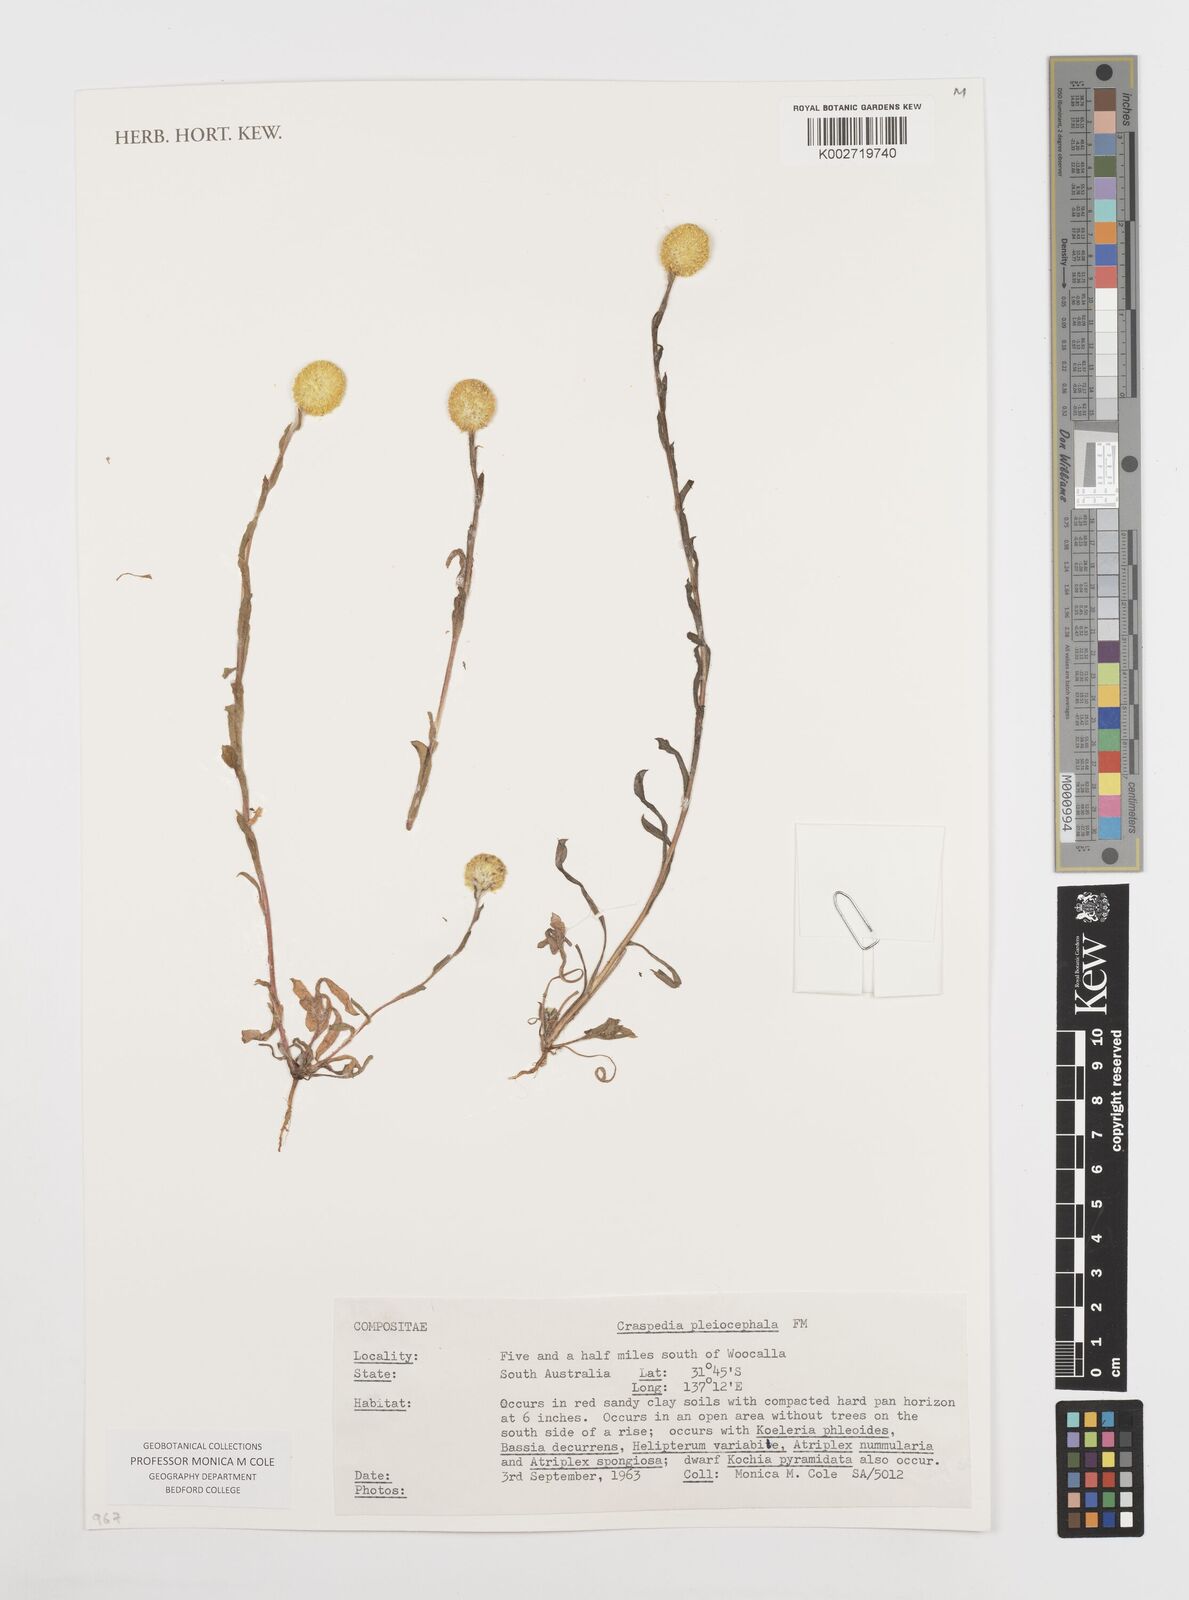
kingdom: Plantae
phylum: Tracheophyta
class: Magnoliopsida
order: Asterales
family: Asteraceae
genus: Pycnosorus
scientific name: Pycnosorus pleiocephalus
